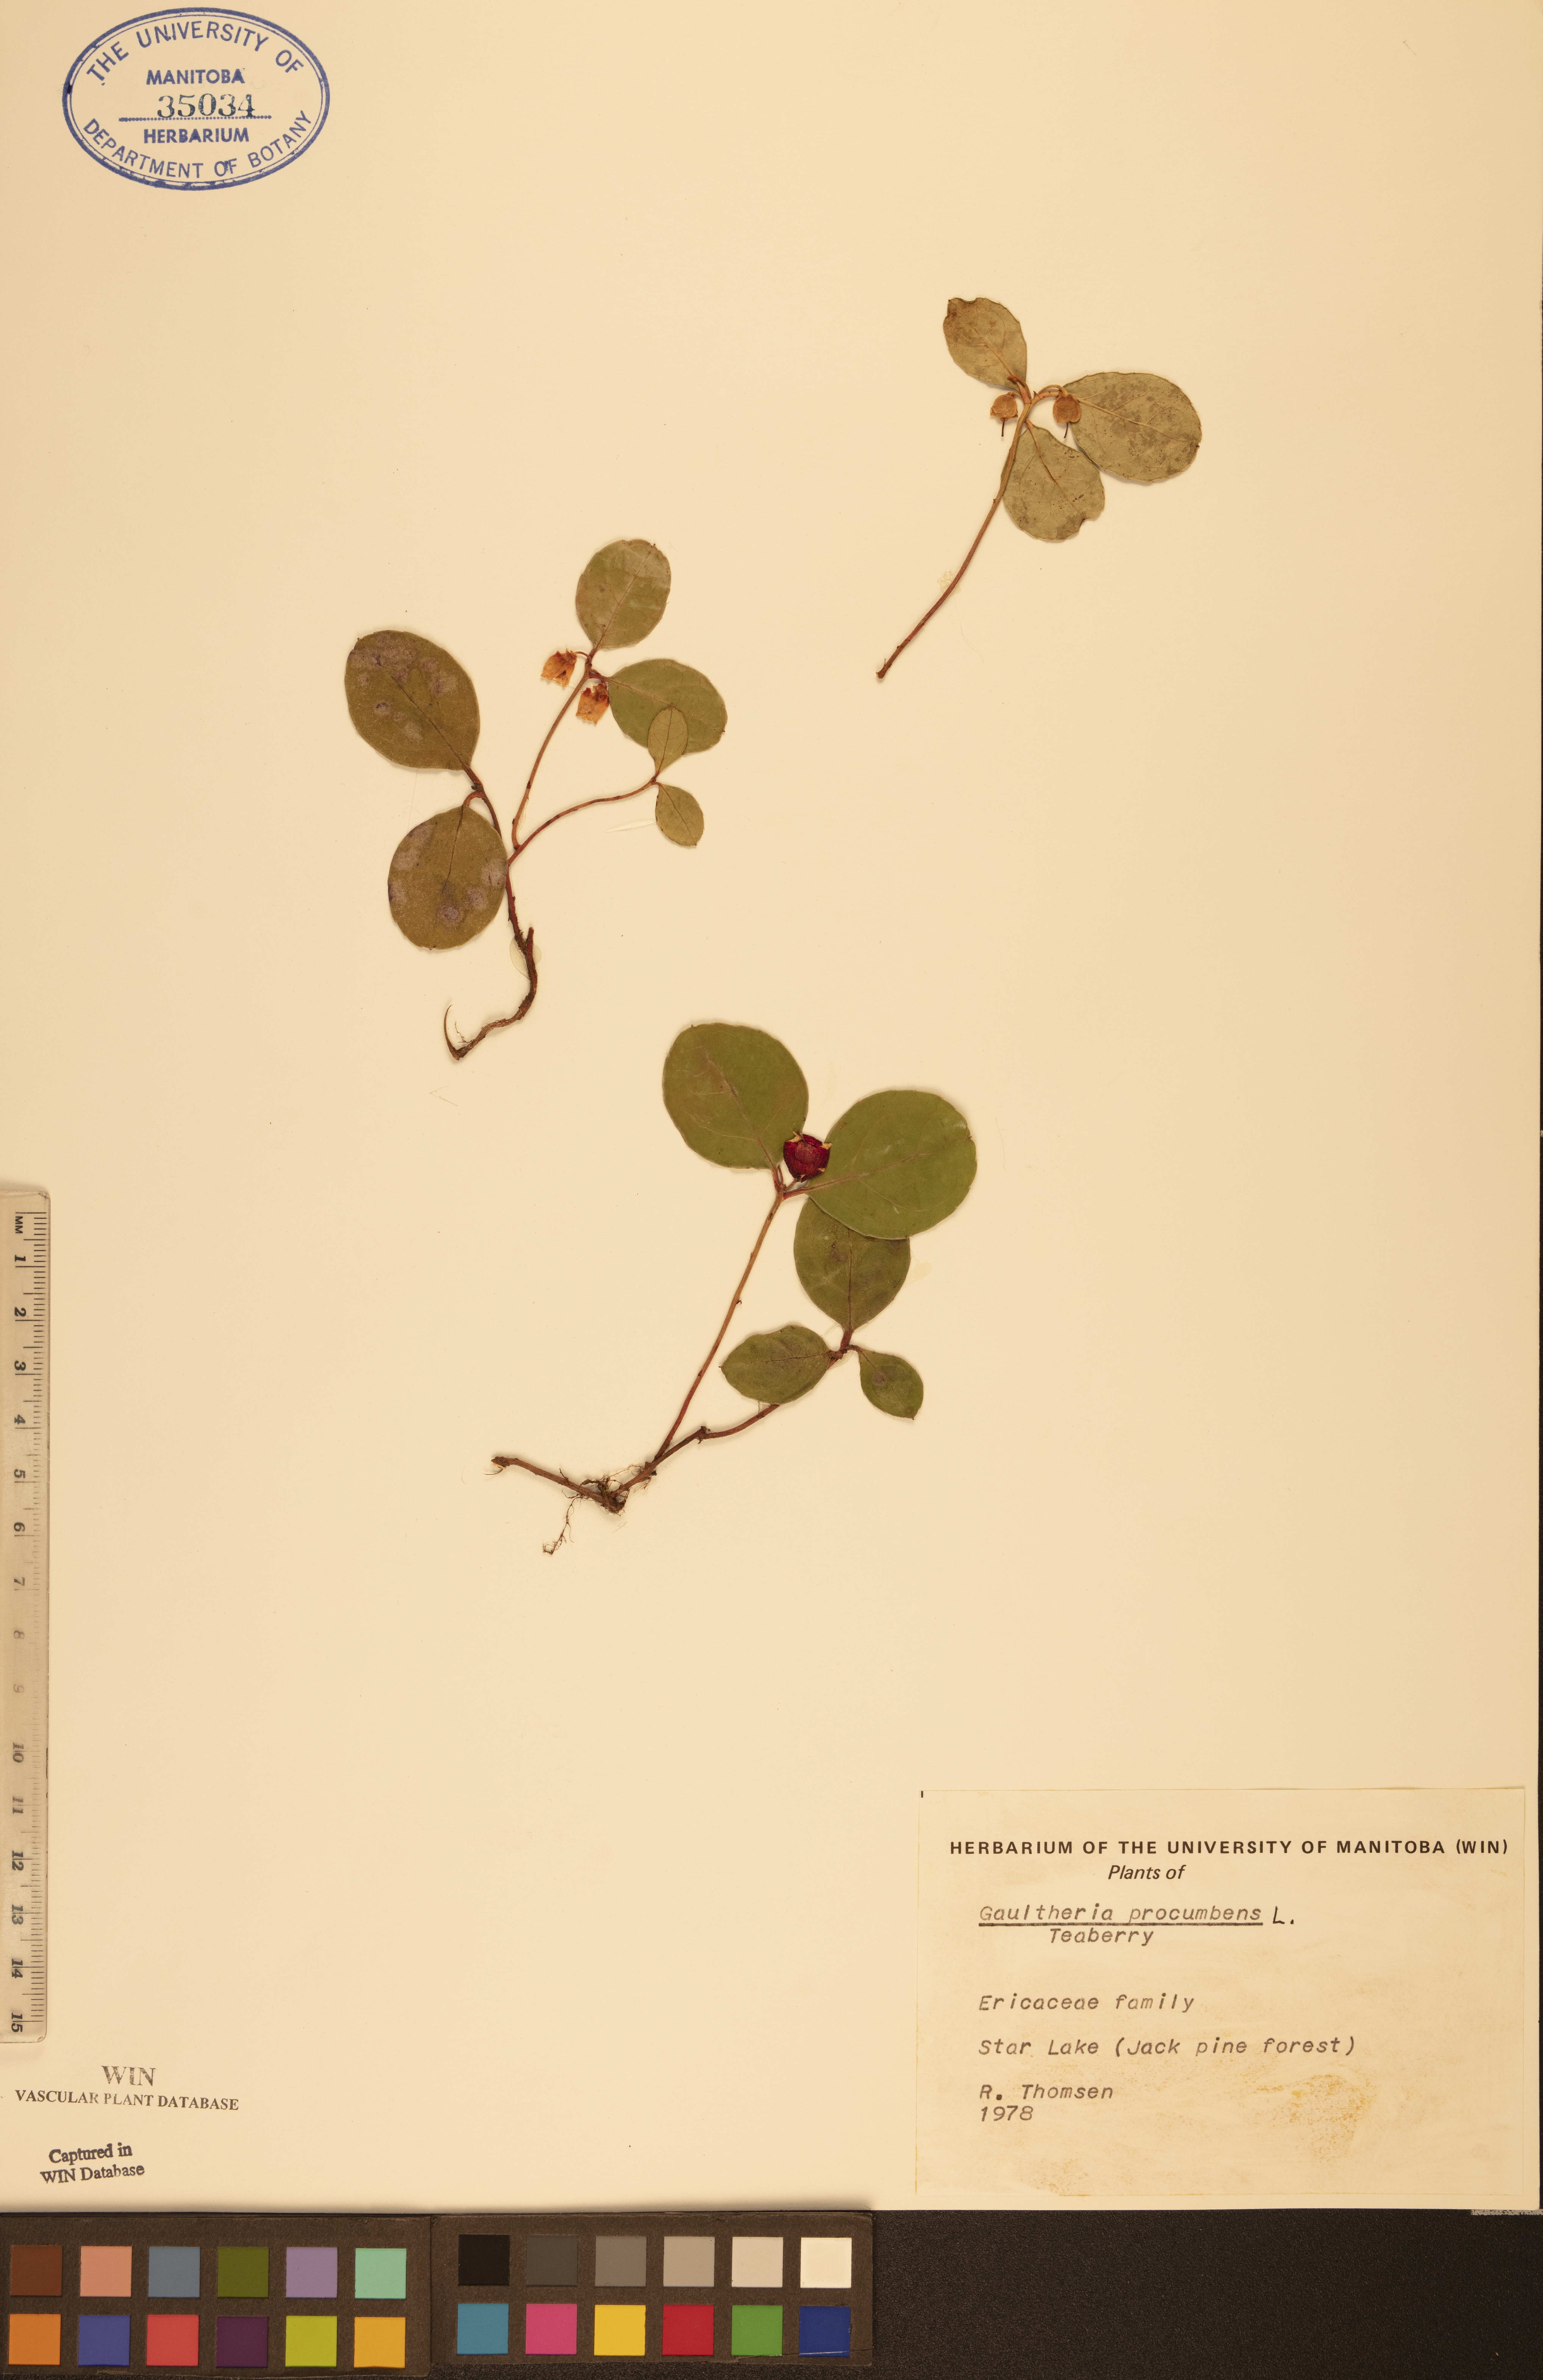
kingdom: Plantae
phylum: Tracheophyta
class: Magnoliopsida
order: Ericales
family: Ericaceae
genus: Gaultheria
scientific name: Gaultheria procumbens
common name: Checkerberry
